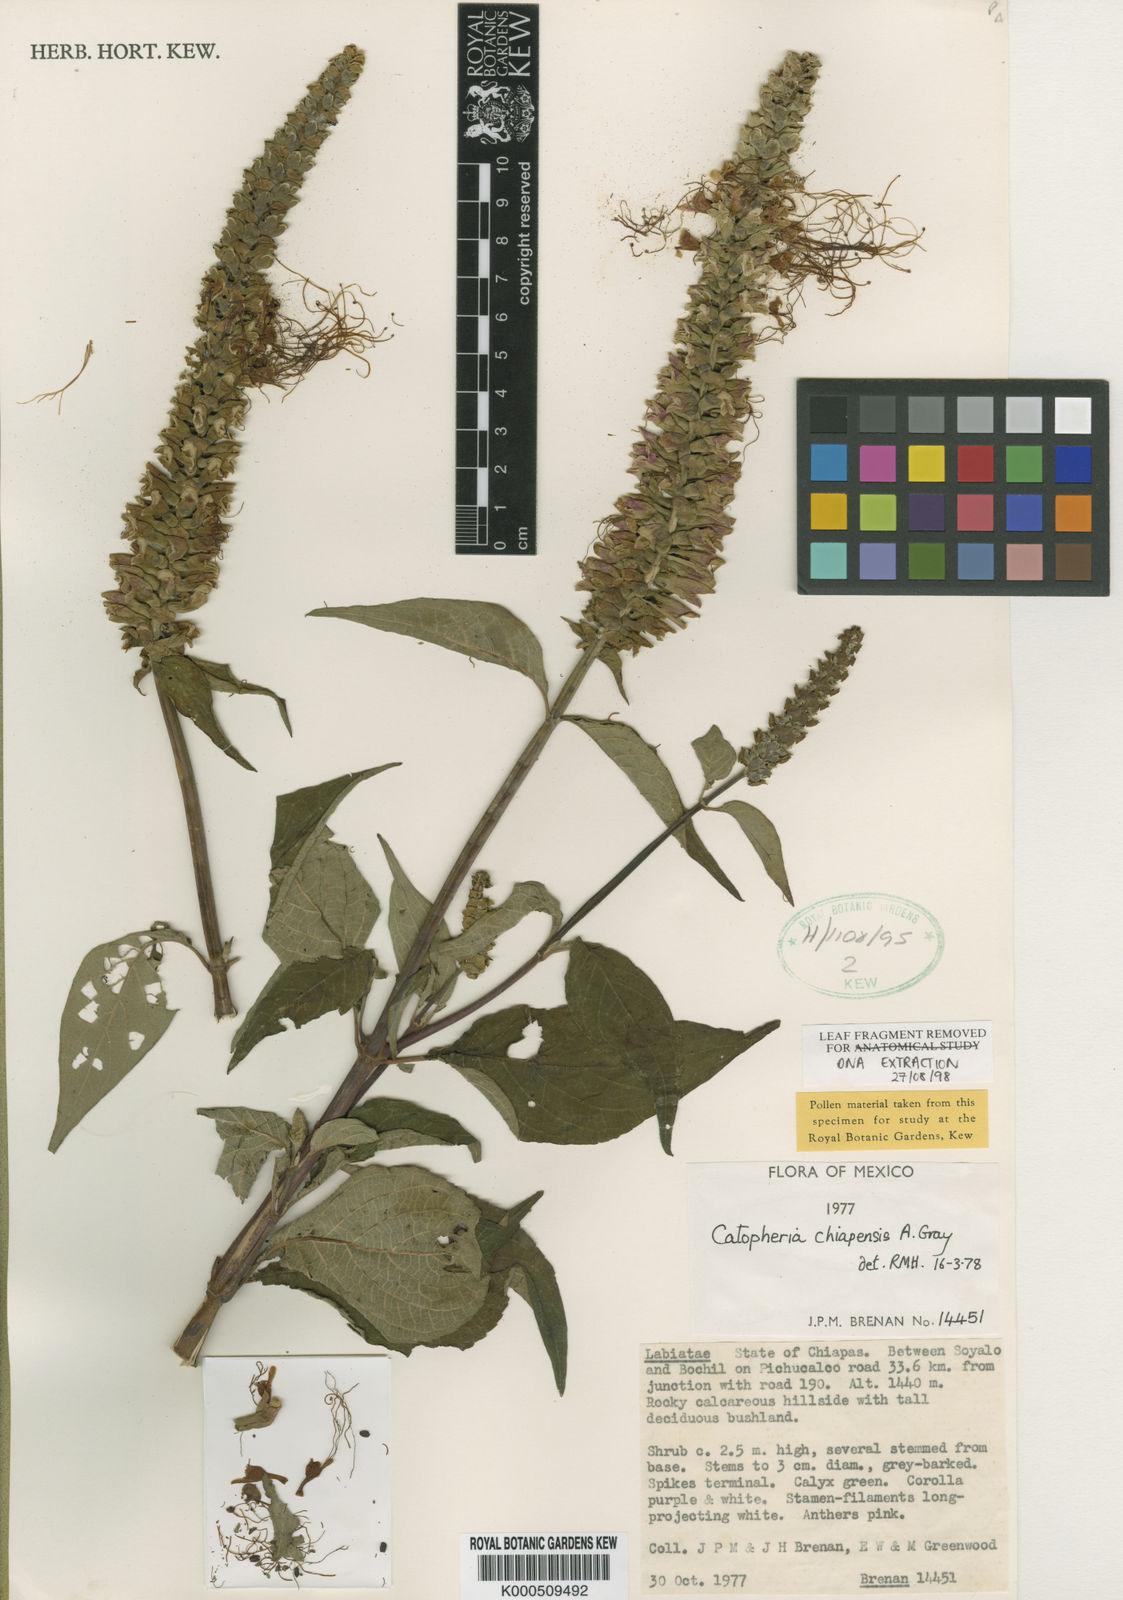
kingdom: Plantae
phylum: Tracheophyta
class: Magnoliopsida
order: Lamiales
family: Lamiaceae
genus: Catoferia
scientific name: Catoferia chiapensis
